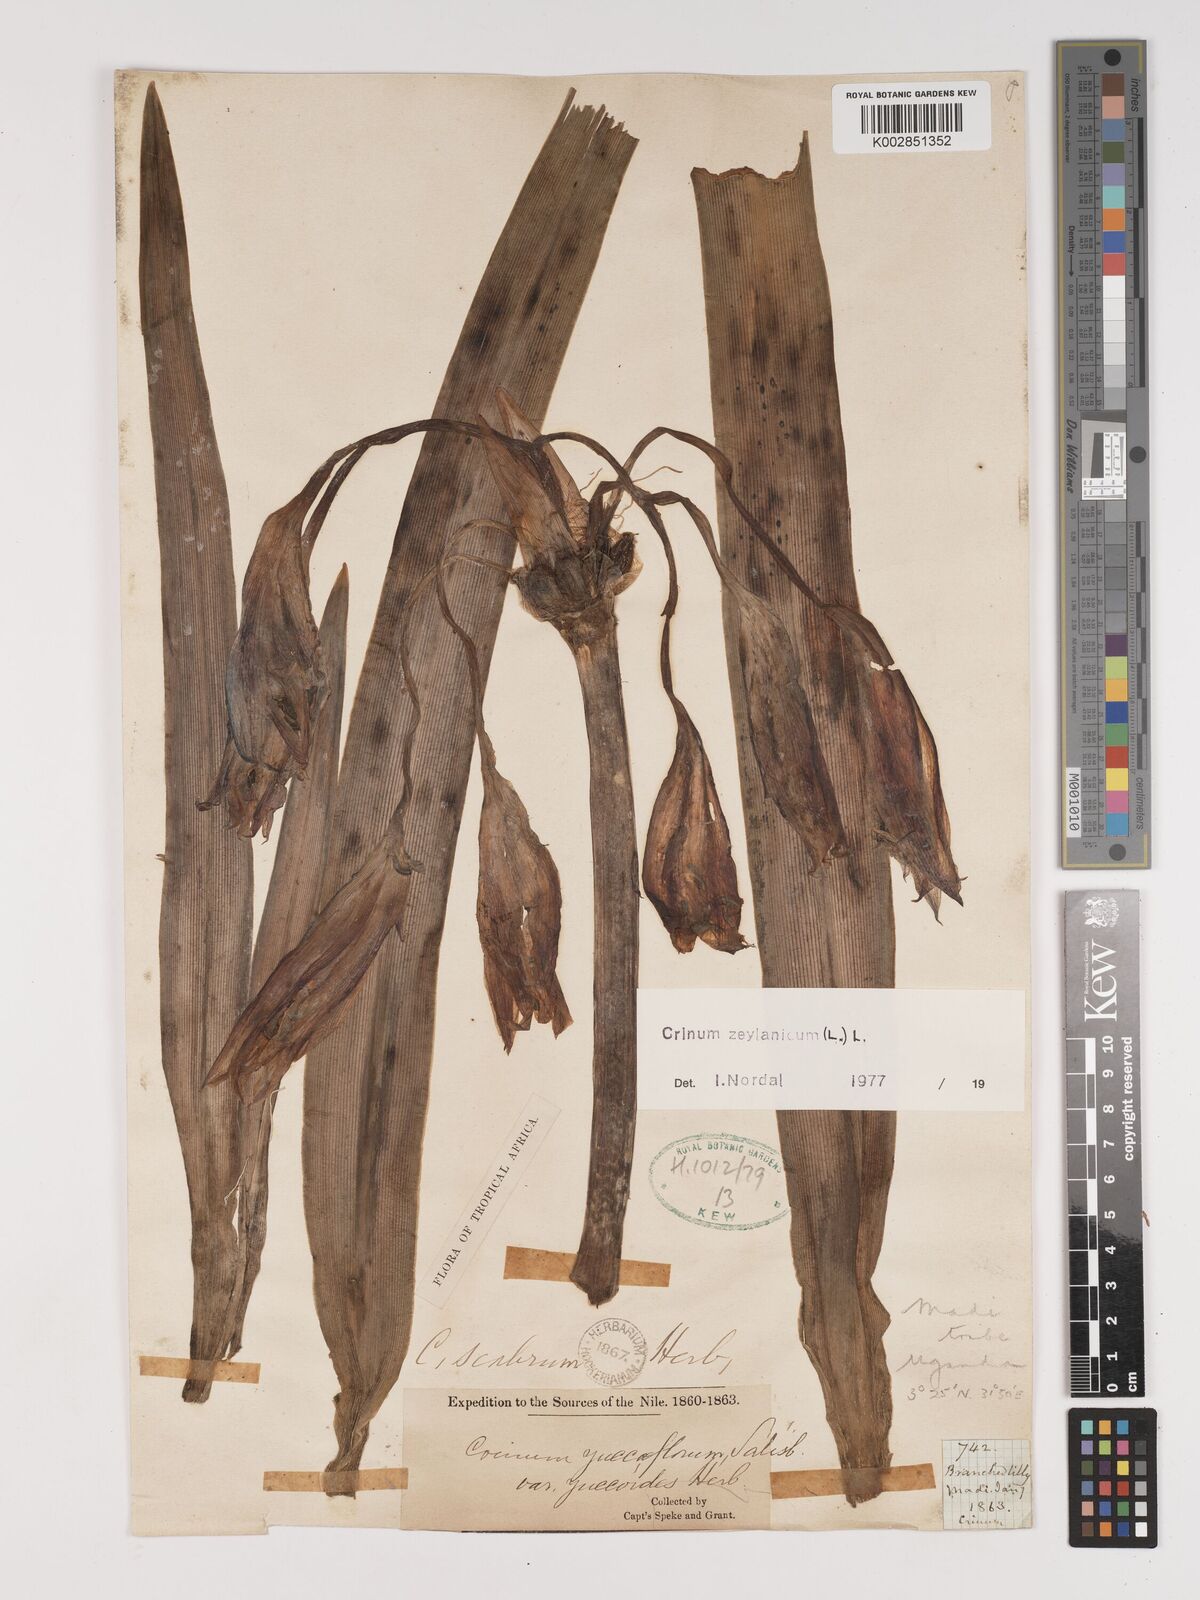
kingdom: Plantae
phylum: Tracheophyta
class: Liliopsida
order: Asparagales
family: Amaryllidaceae
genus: Crinum
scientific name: Crinum zeylanicum
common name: Ceylon swamplily
